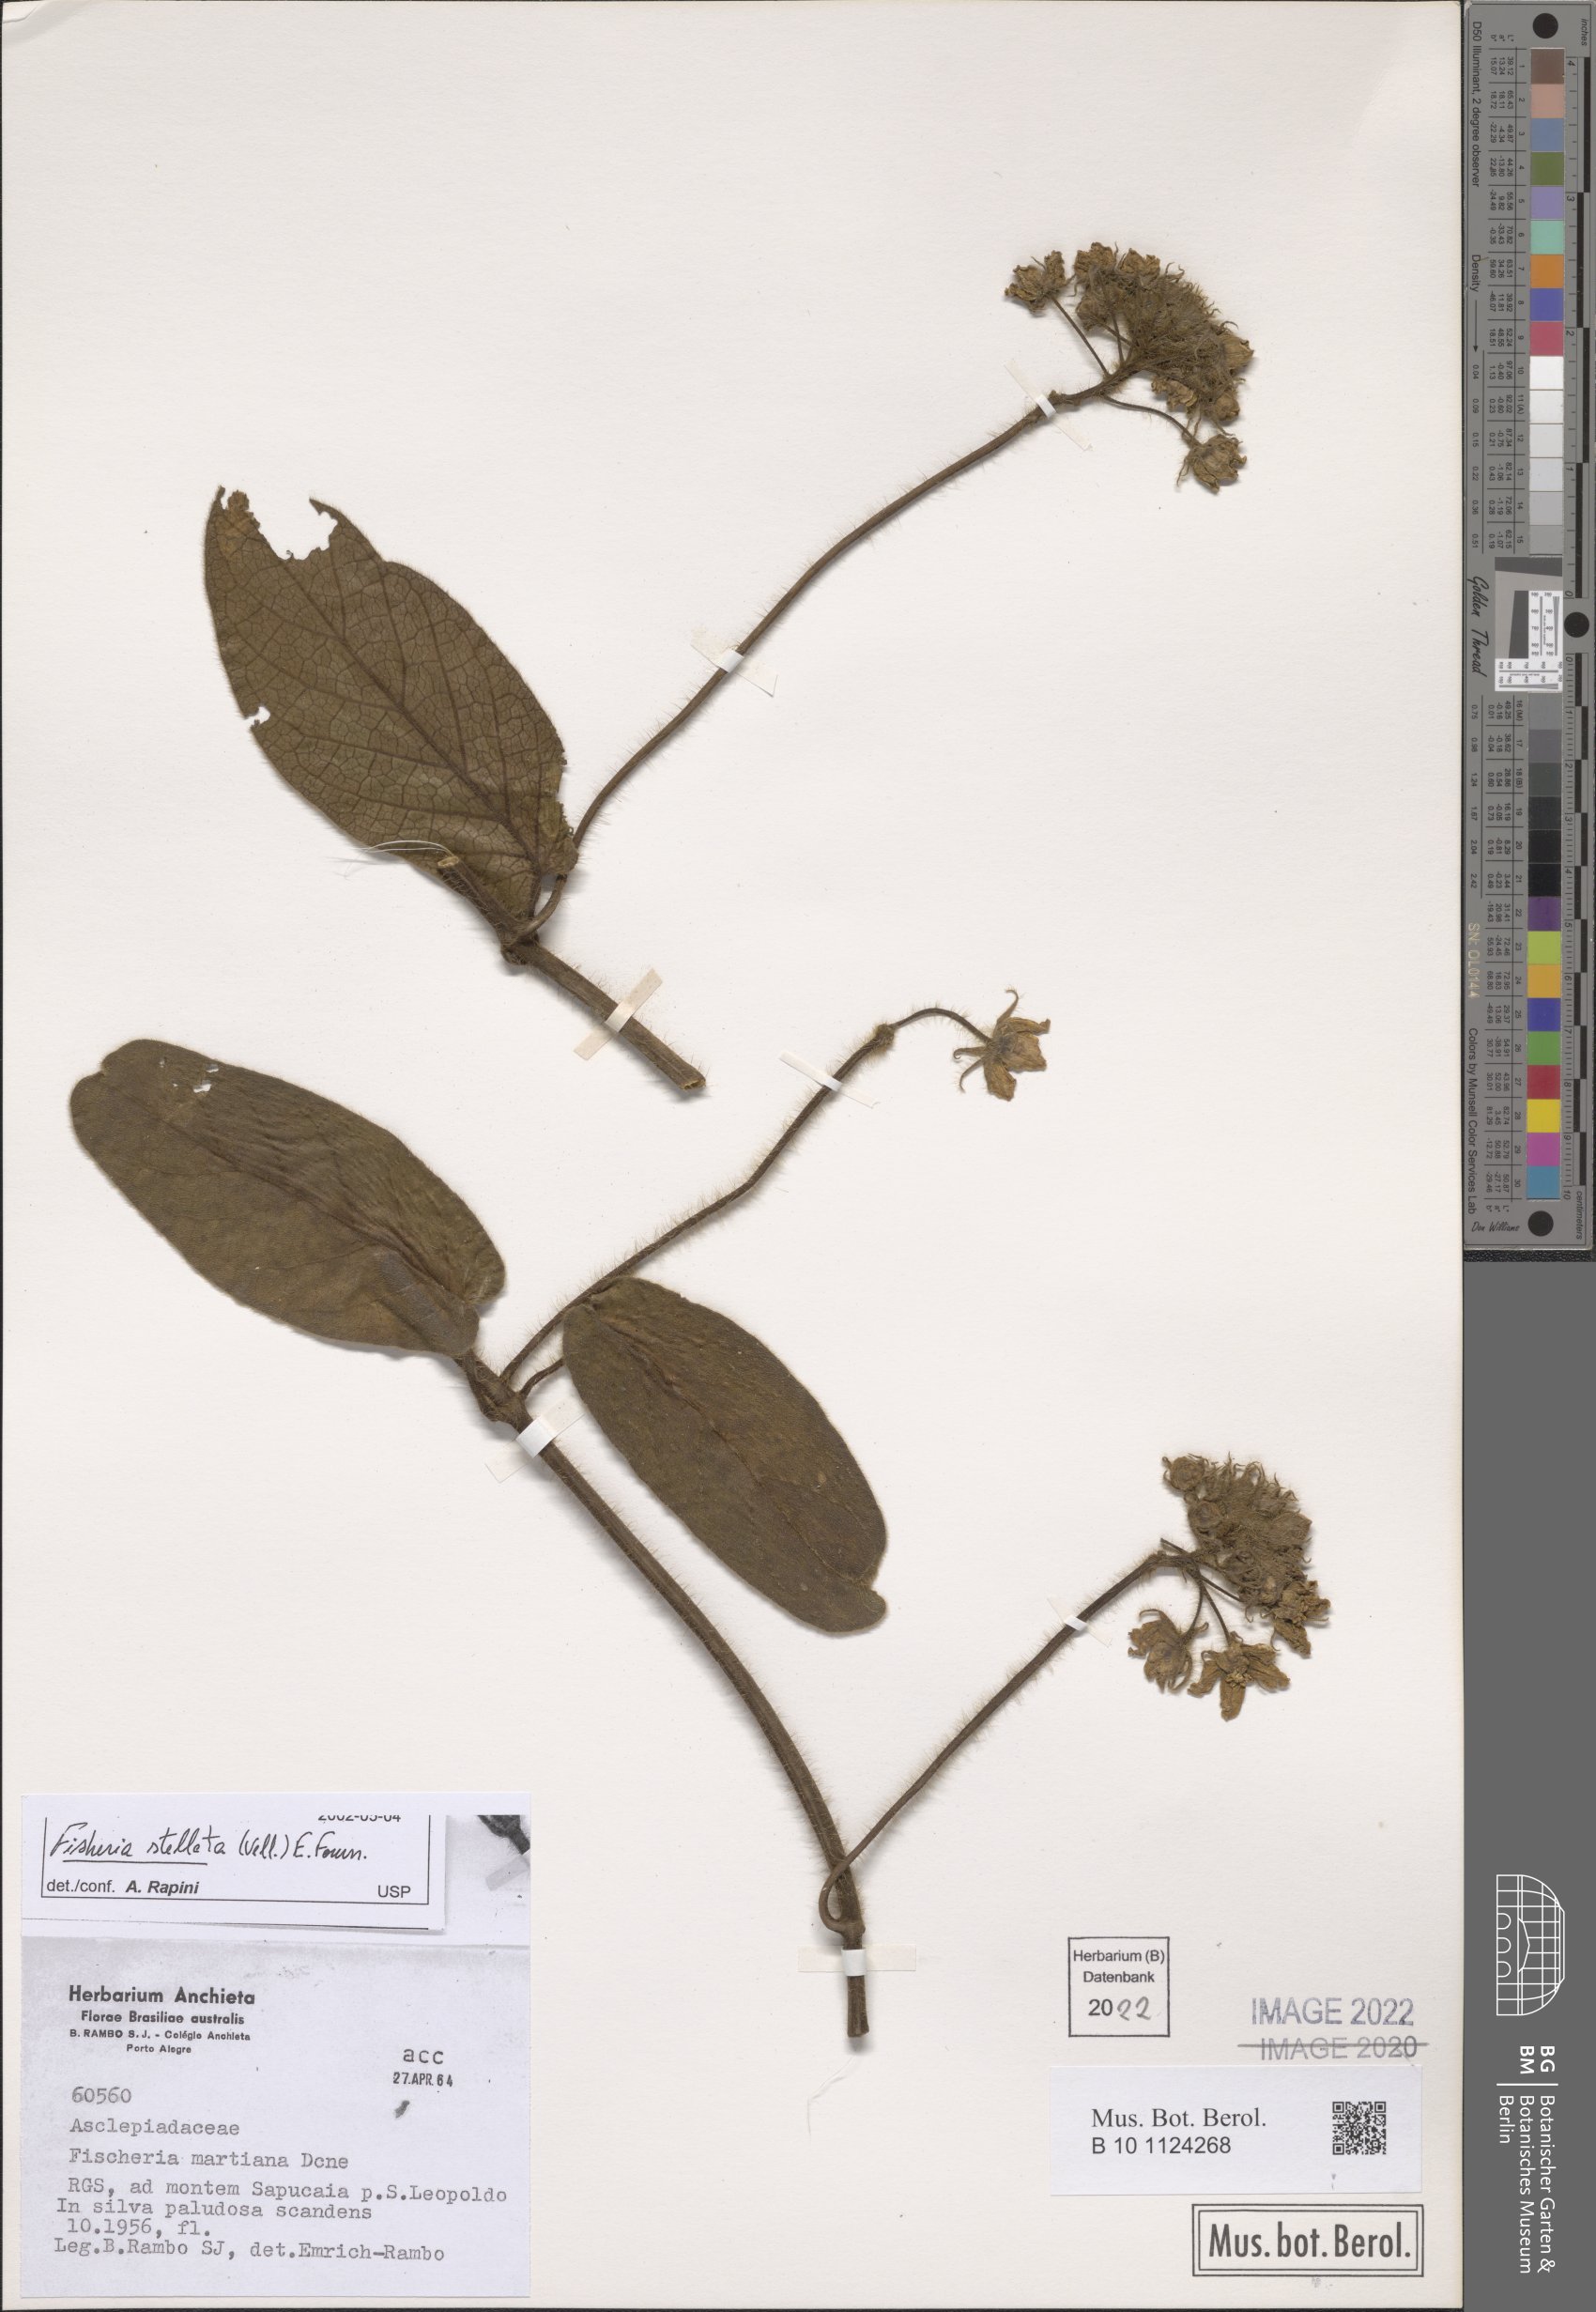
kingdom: Plantae
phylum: Tracheophyta
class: Magnoliopsida
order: Gentianales
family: Apocynaceae
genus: Fischeria
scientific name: Fischeria stellata
